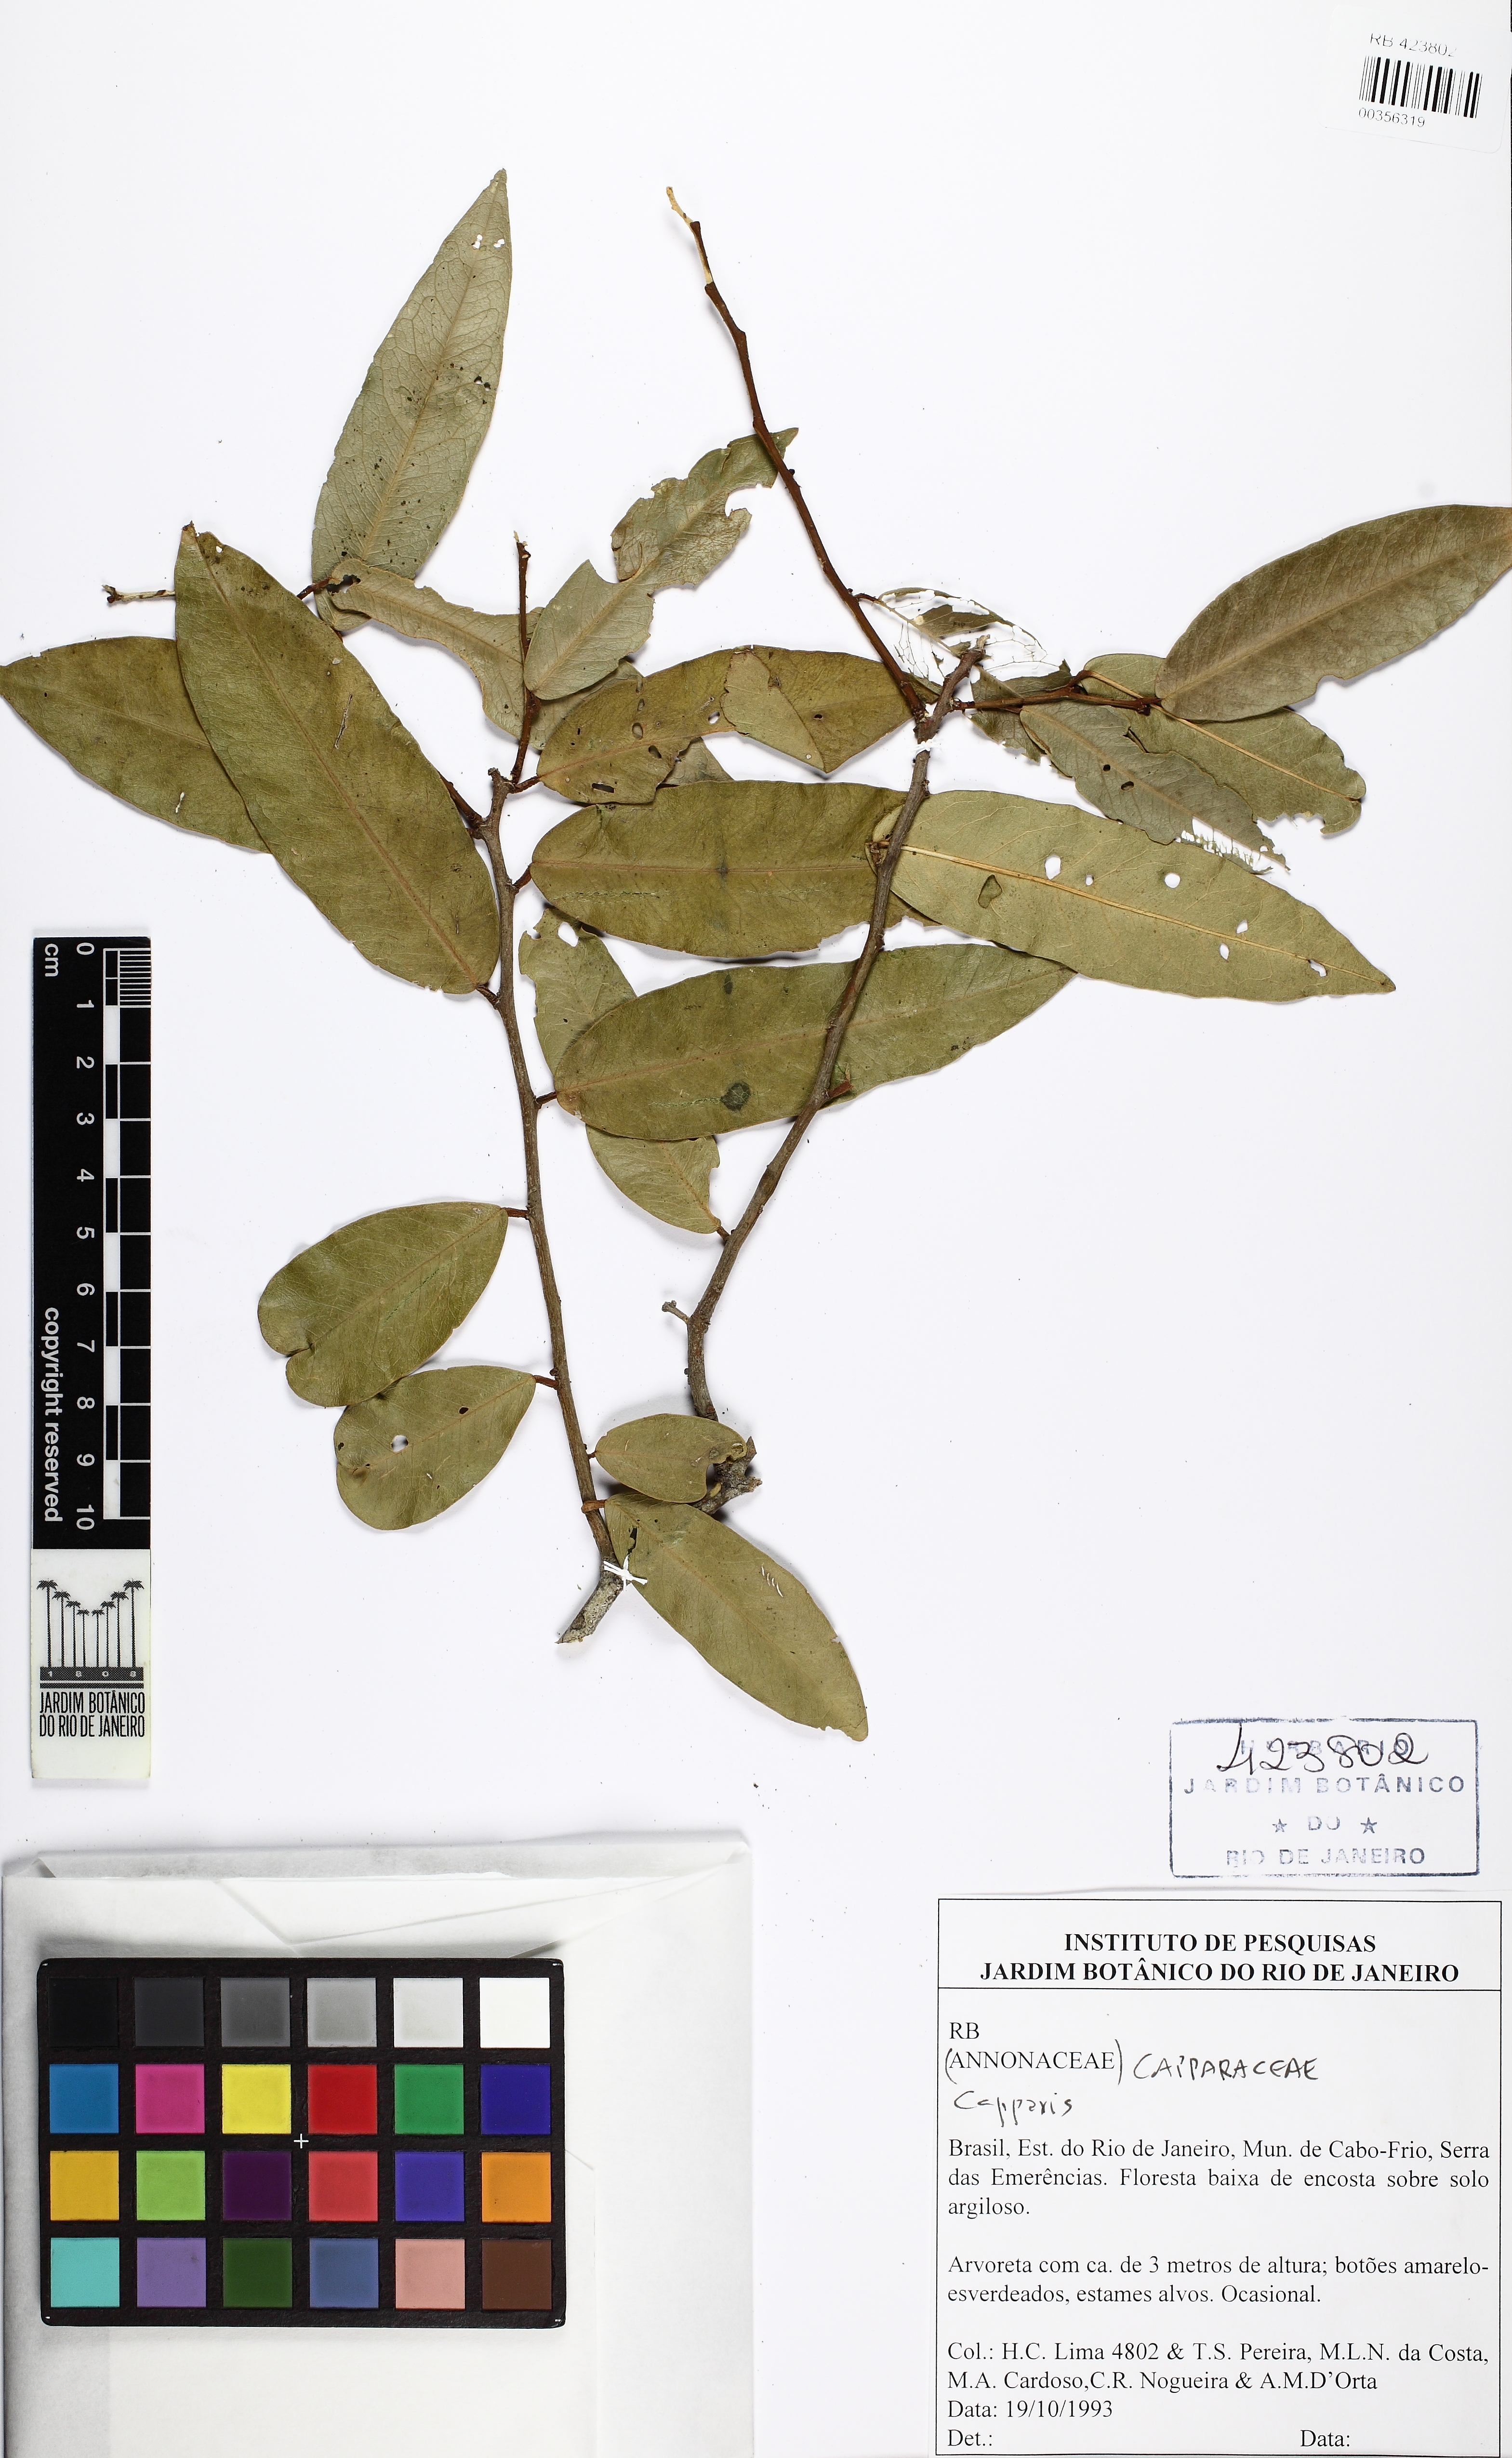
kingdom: Plantae
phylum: Tracheophyta
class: Magnoliopsida
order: Brassicales
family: Capparaceae
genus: Cynophalla
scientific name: Cynophalla flexuosa
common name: Capertree
